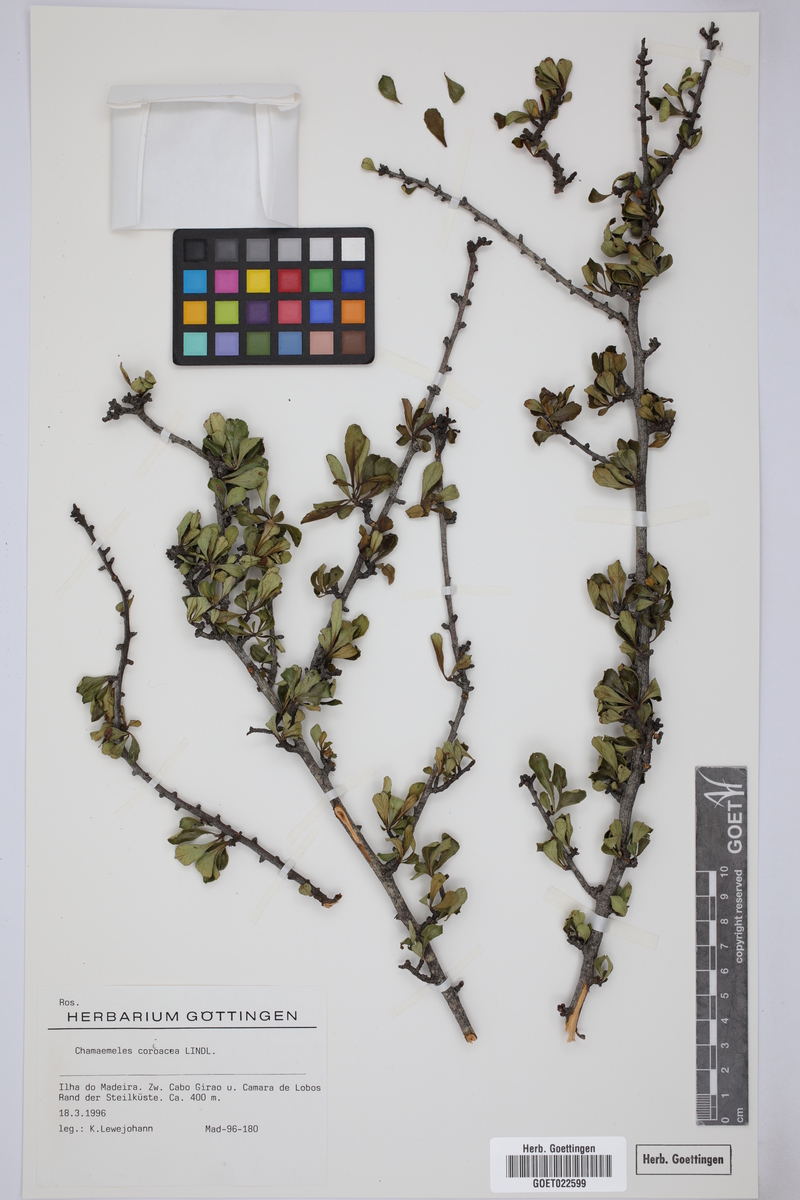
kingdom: Plantae
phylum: Tracheophyta
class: Magnoliopsida
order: Rosales
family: Rosaceae
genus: Chamaemeles
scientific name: Chamaemeles coriacea
